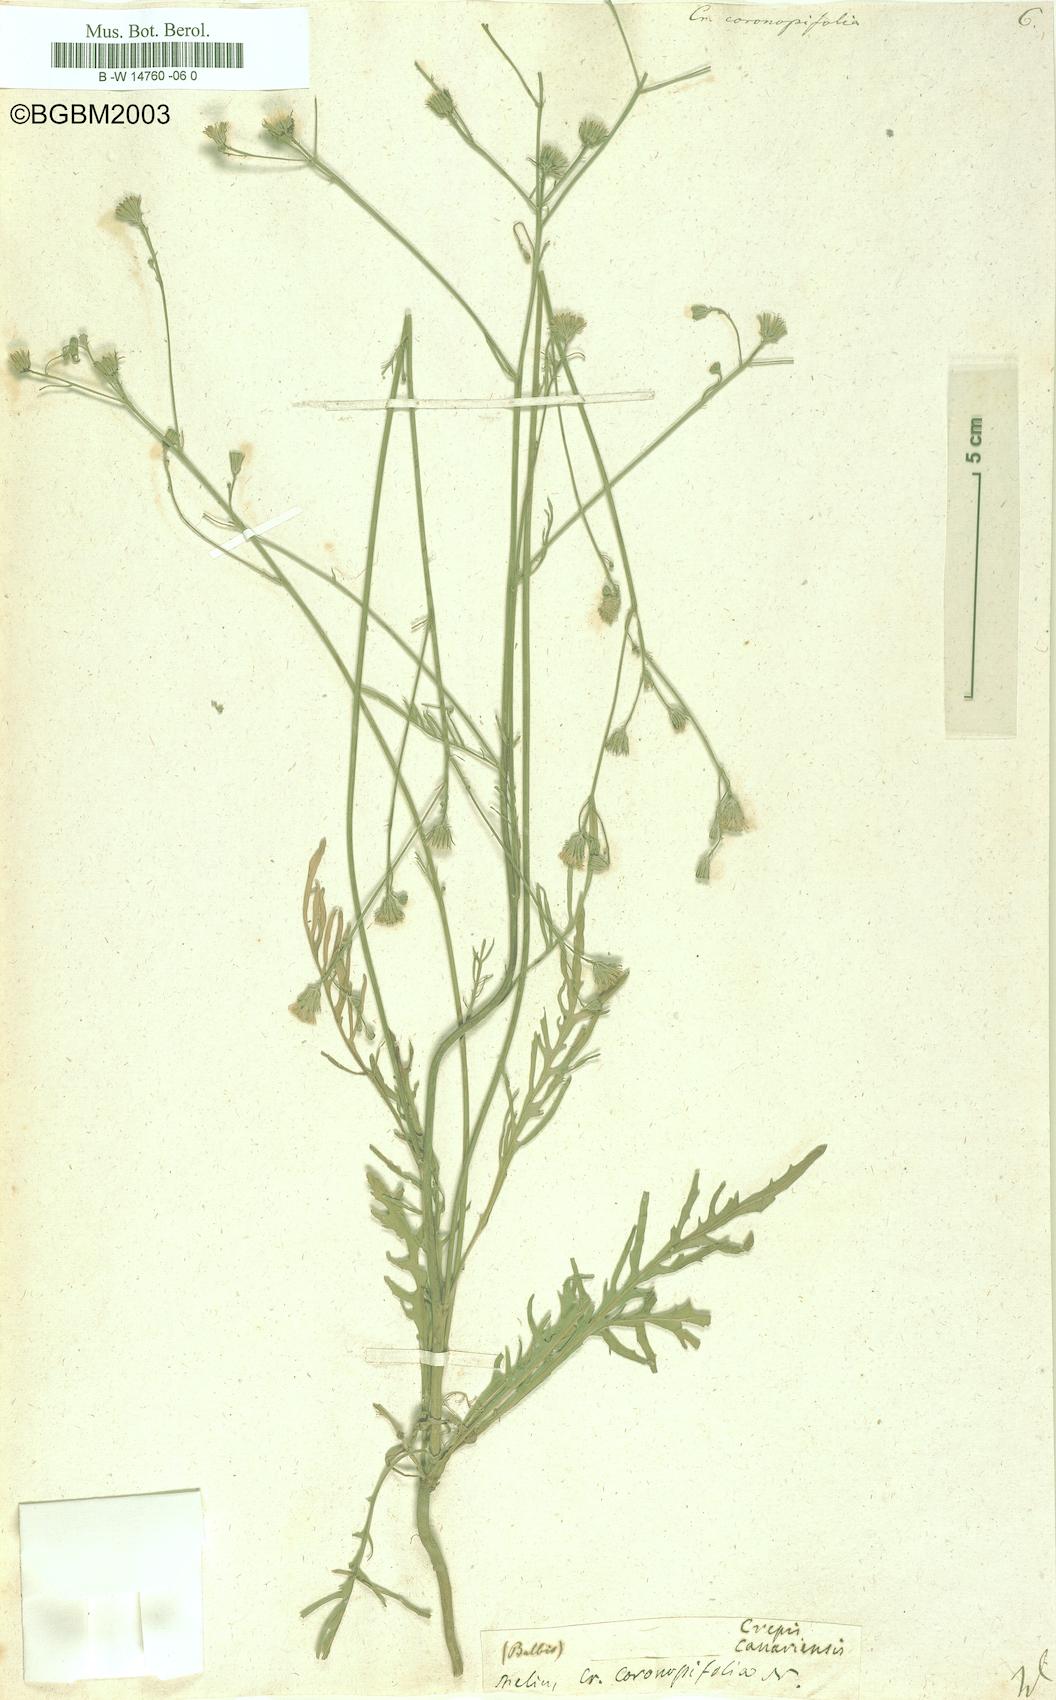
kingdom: Plantae
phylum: Tracheophyta
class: Magnoliopsida
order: Asterales
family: Asteraceae
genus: Tolpis
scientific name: Tolpis coronopifolia
